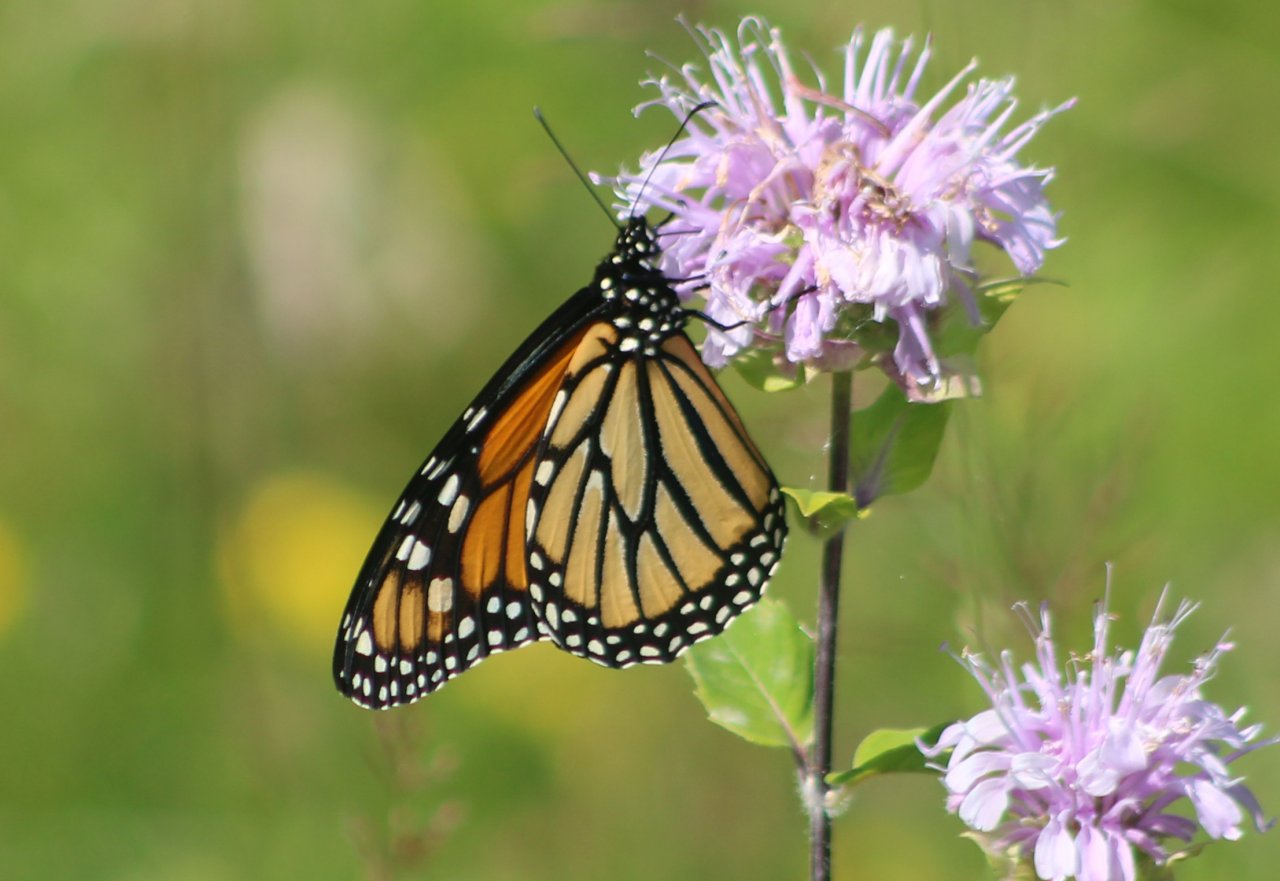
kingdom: Animalia
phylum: Arthropoda
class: Insecta
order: Lepidoptera
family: Nymphalidae
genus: Danaus
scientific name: Danaus plexippus
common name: Monarch
